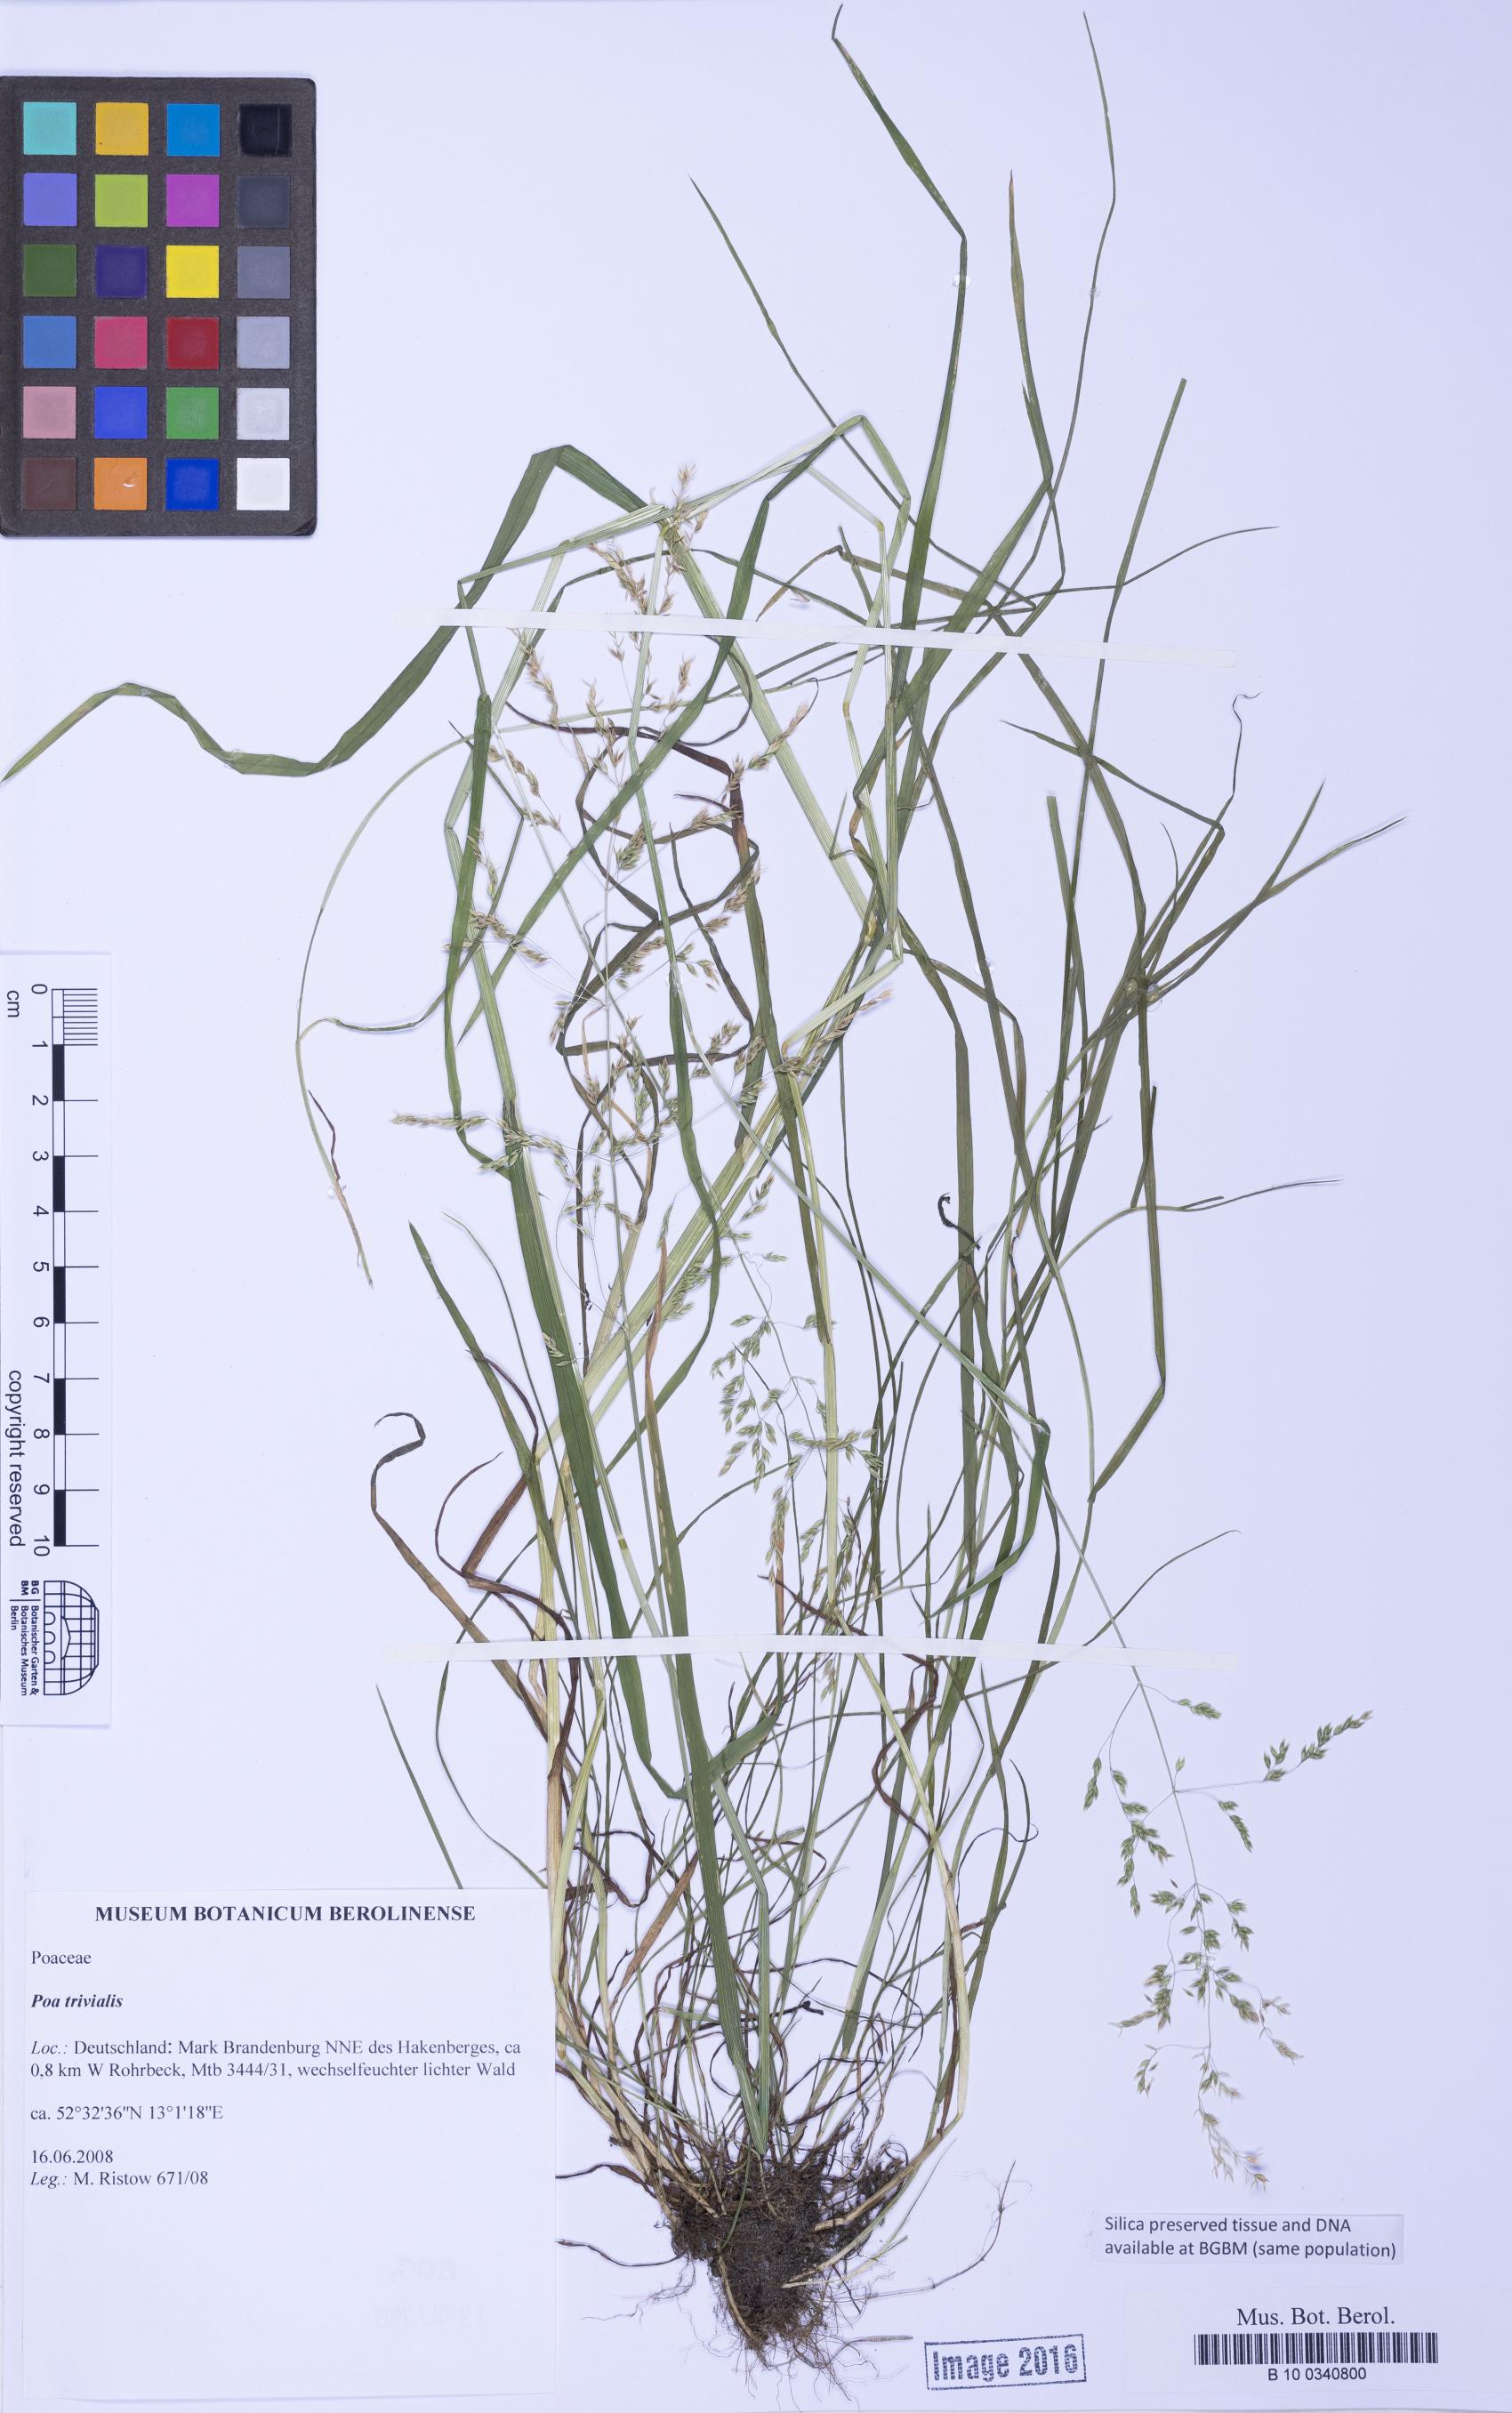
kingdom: Plantae
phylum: Tracheophyta
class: Liliopsida
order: Poales
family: Poaceae
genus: Poa
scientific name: Poa trivialis
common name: Rough bluegrass
